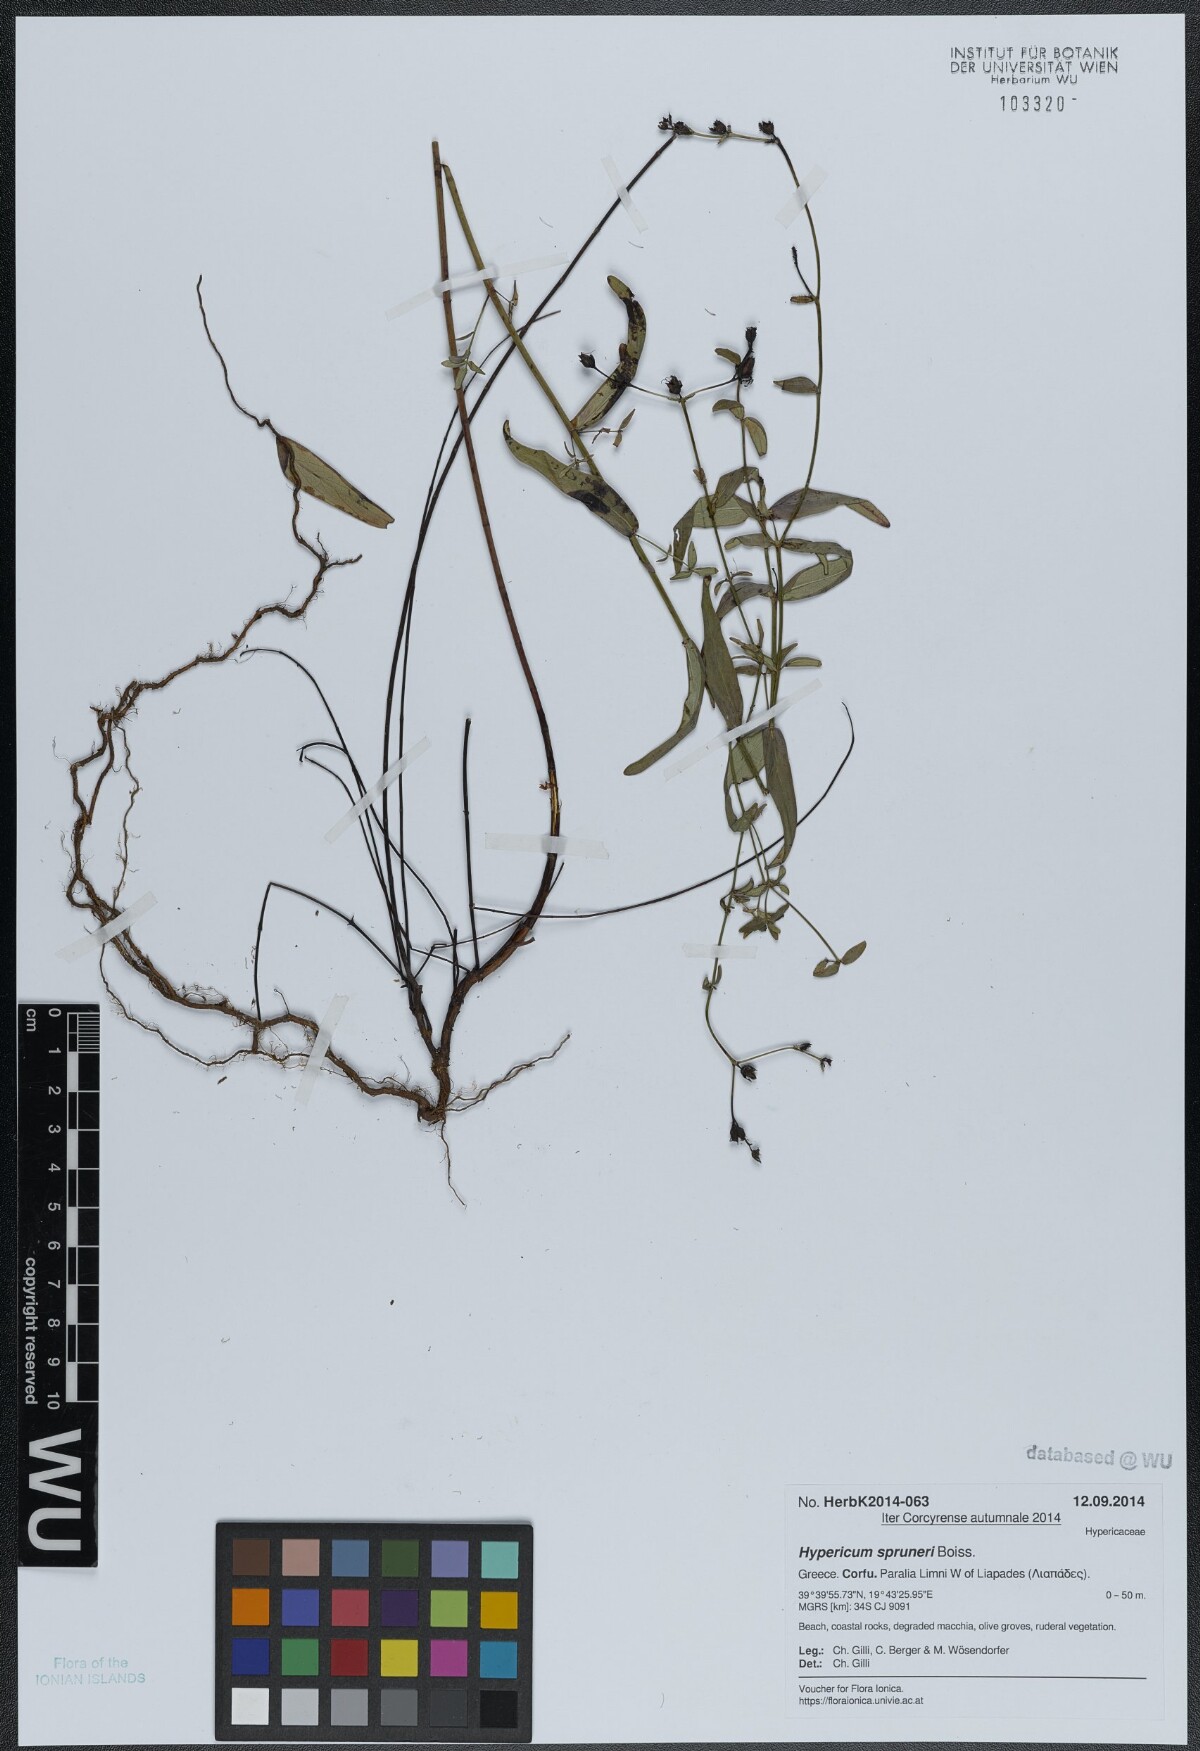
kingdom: Plantae
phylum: Tracheophyta
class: Magnoliopsida
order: Malpighiales
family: Hypericaceae
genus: Hypericum
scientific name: Hypericum spruneri
